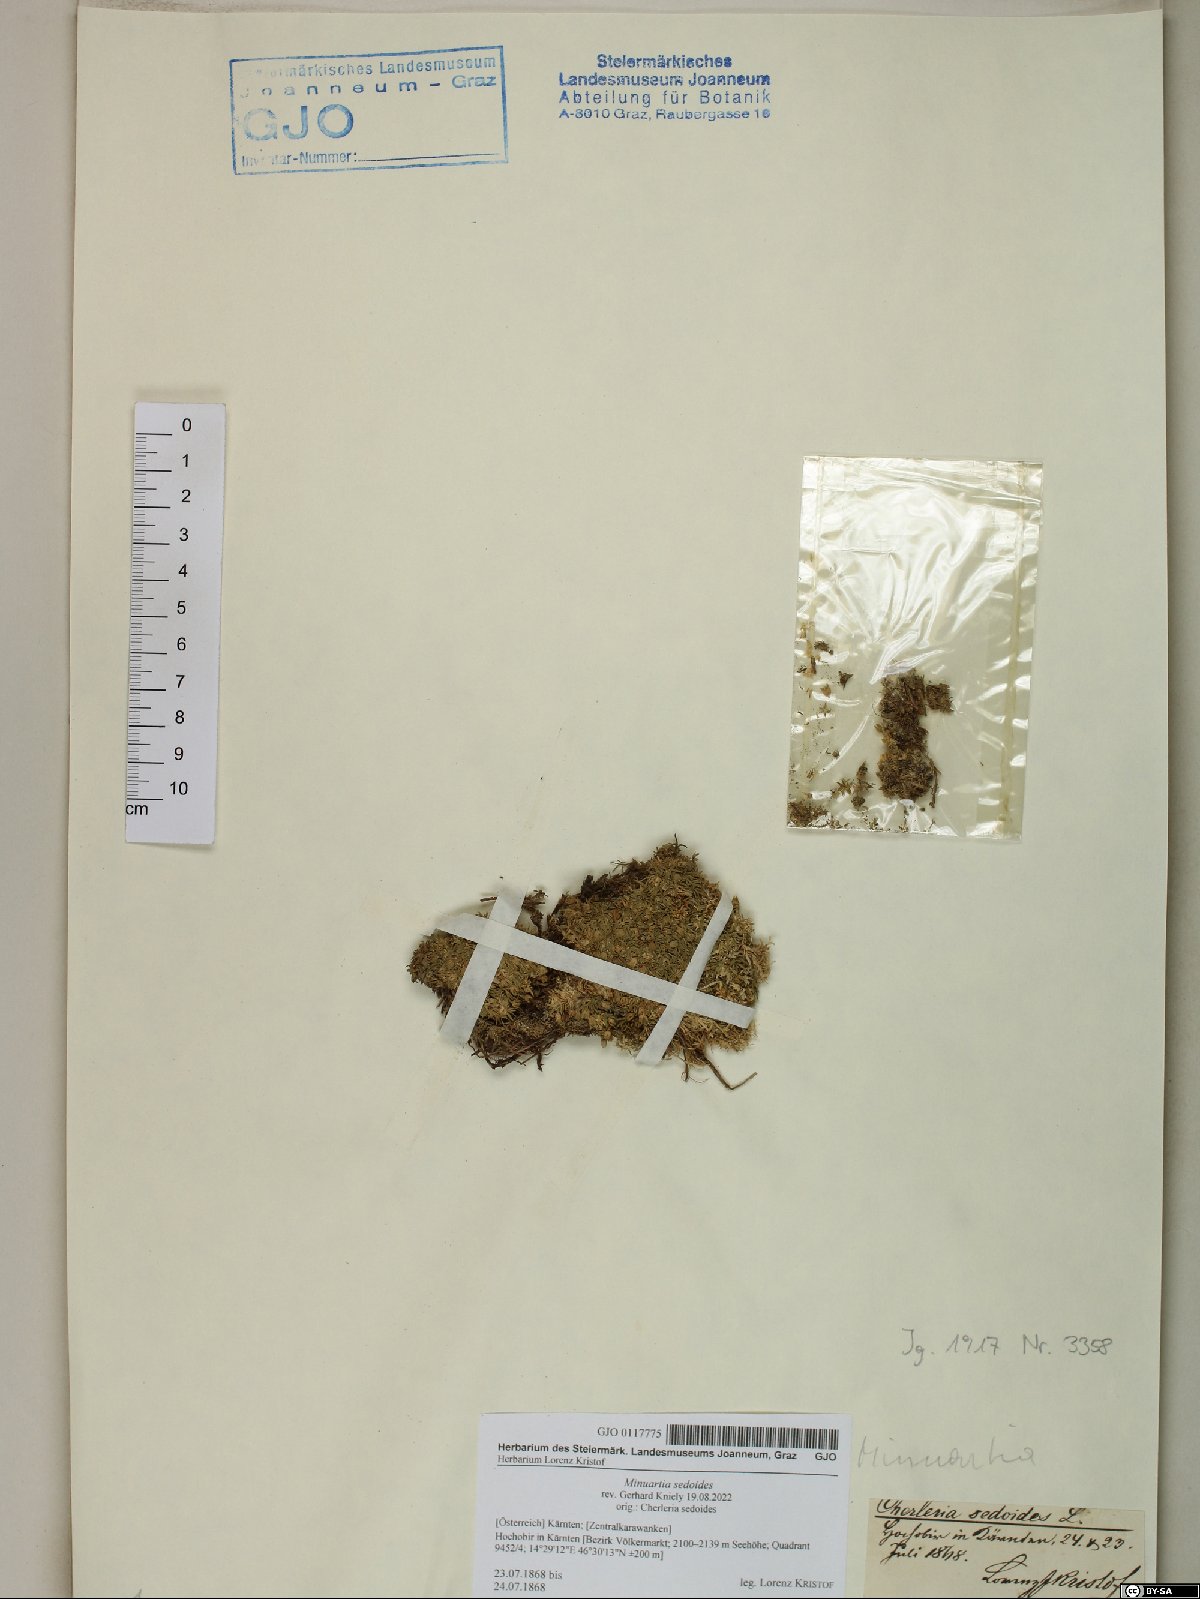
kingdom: Plantae
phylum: Tracheophyta
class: Magnoliopsida
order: Caryophyllales
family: Caryophyllaceae
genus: Cherleria
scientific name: Cherleria sedoides
